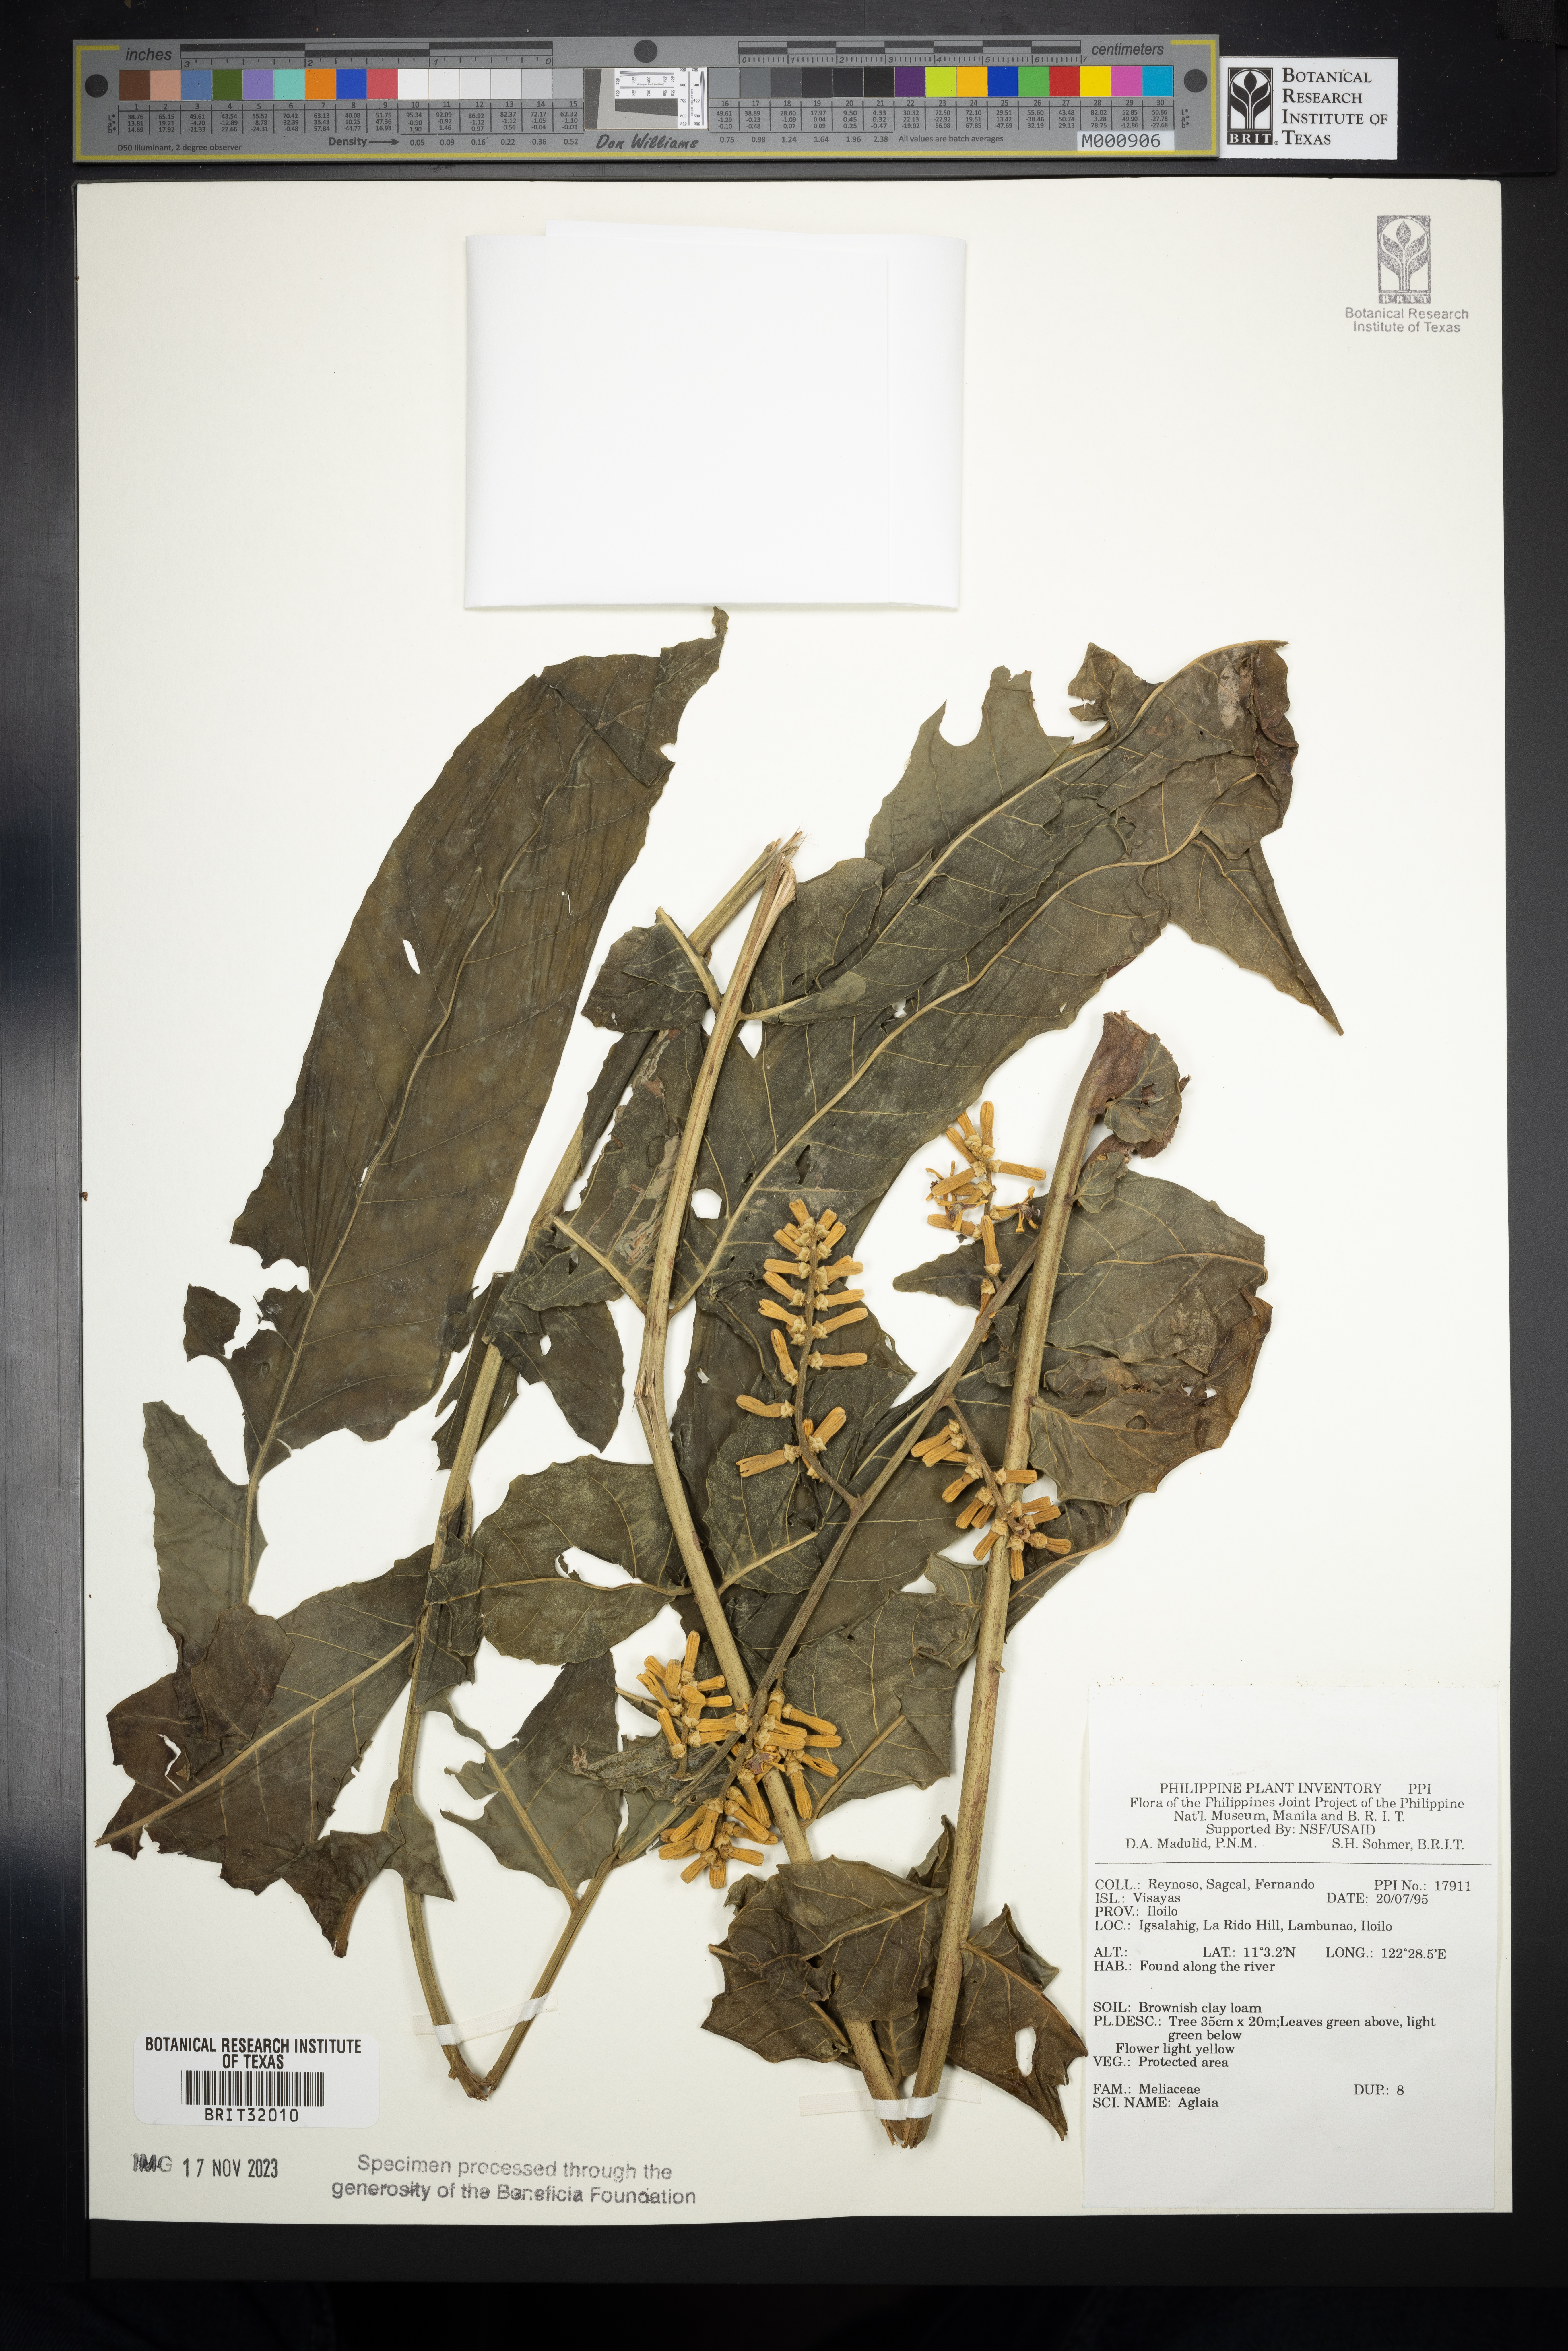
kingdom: Plantae
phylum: Tracheophyta
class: Magnoliopsida
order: Sapindales
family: Meliaceae
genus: Aglaia
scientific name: Aglaia
